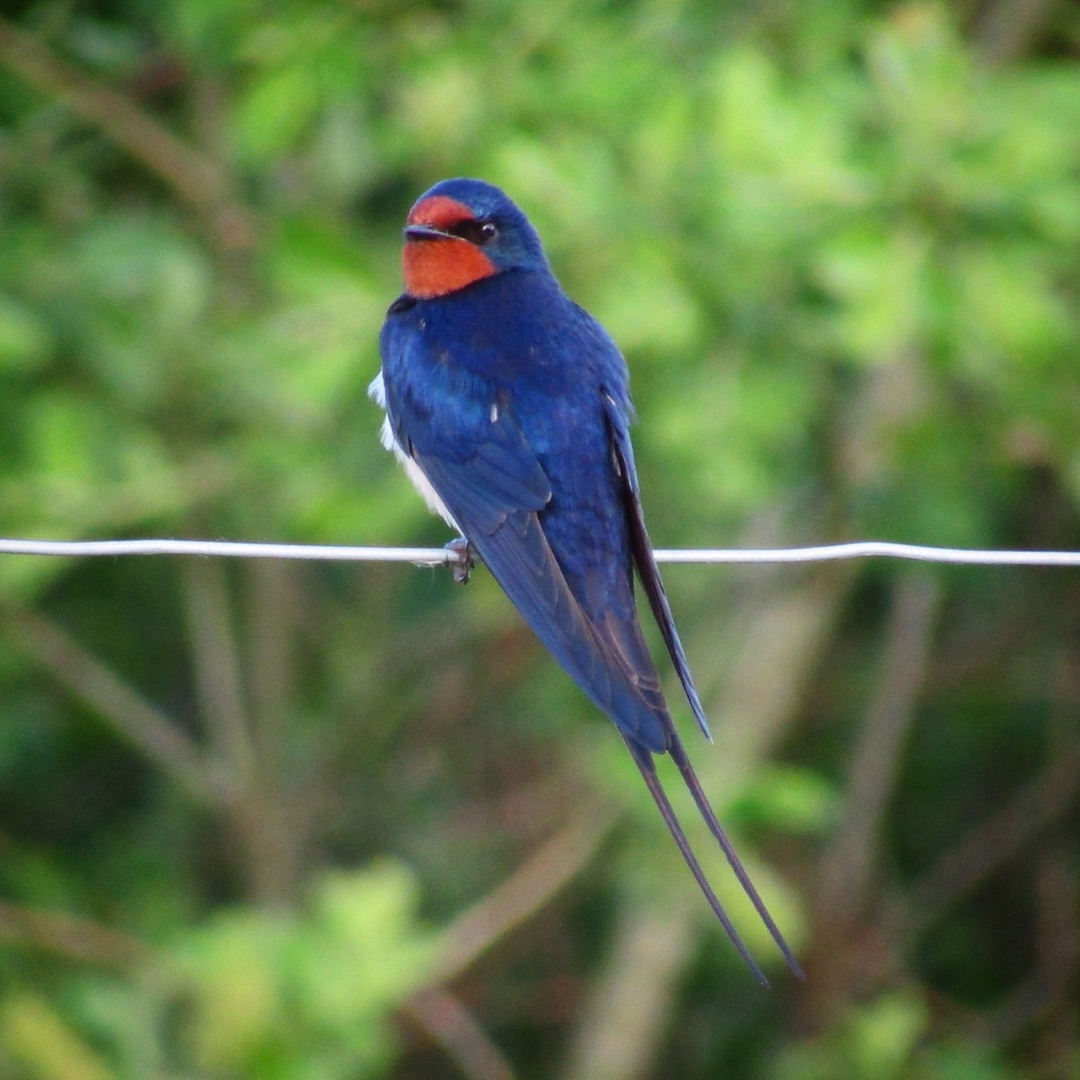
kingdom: Animalia
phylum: Chordata
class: Aves
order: Passeriformes
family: Hirundinidae
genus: Hirundo
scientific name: Hirundo rustica
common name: Landsvale
